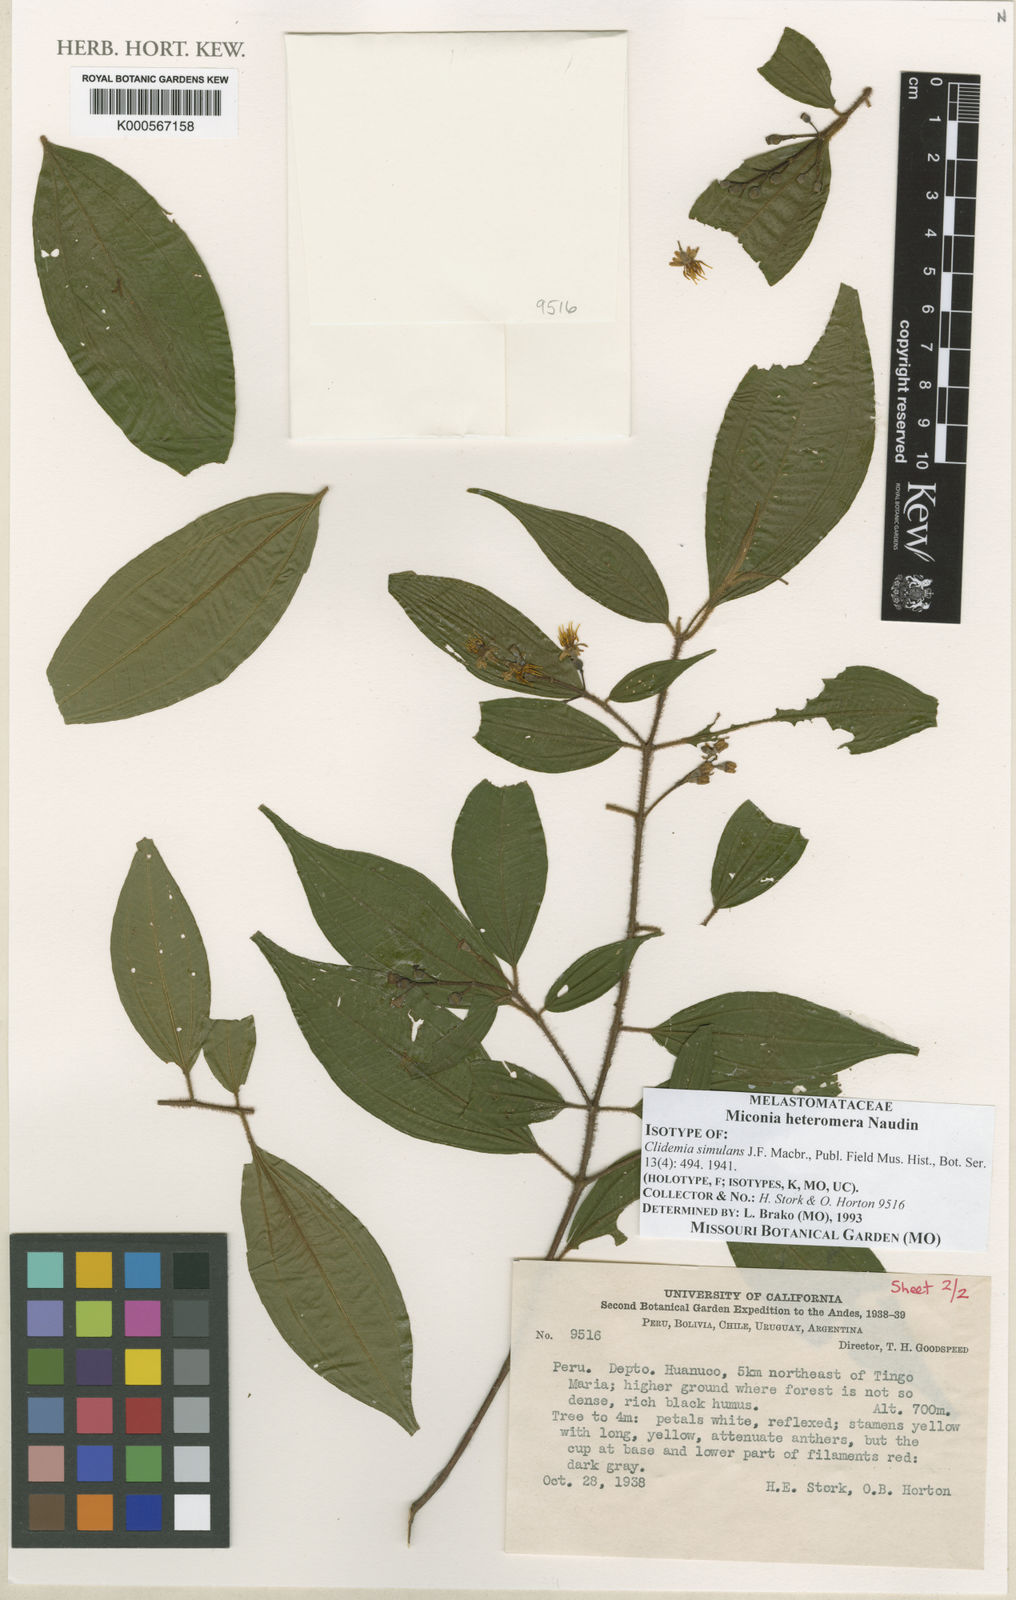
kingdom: Plantae
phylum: Tracheophyta
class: Magnoliopsida
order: Myrtales
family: Melastomataceae
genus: Miconia
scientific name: Miconia heteromera
